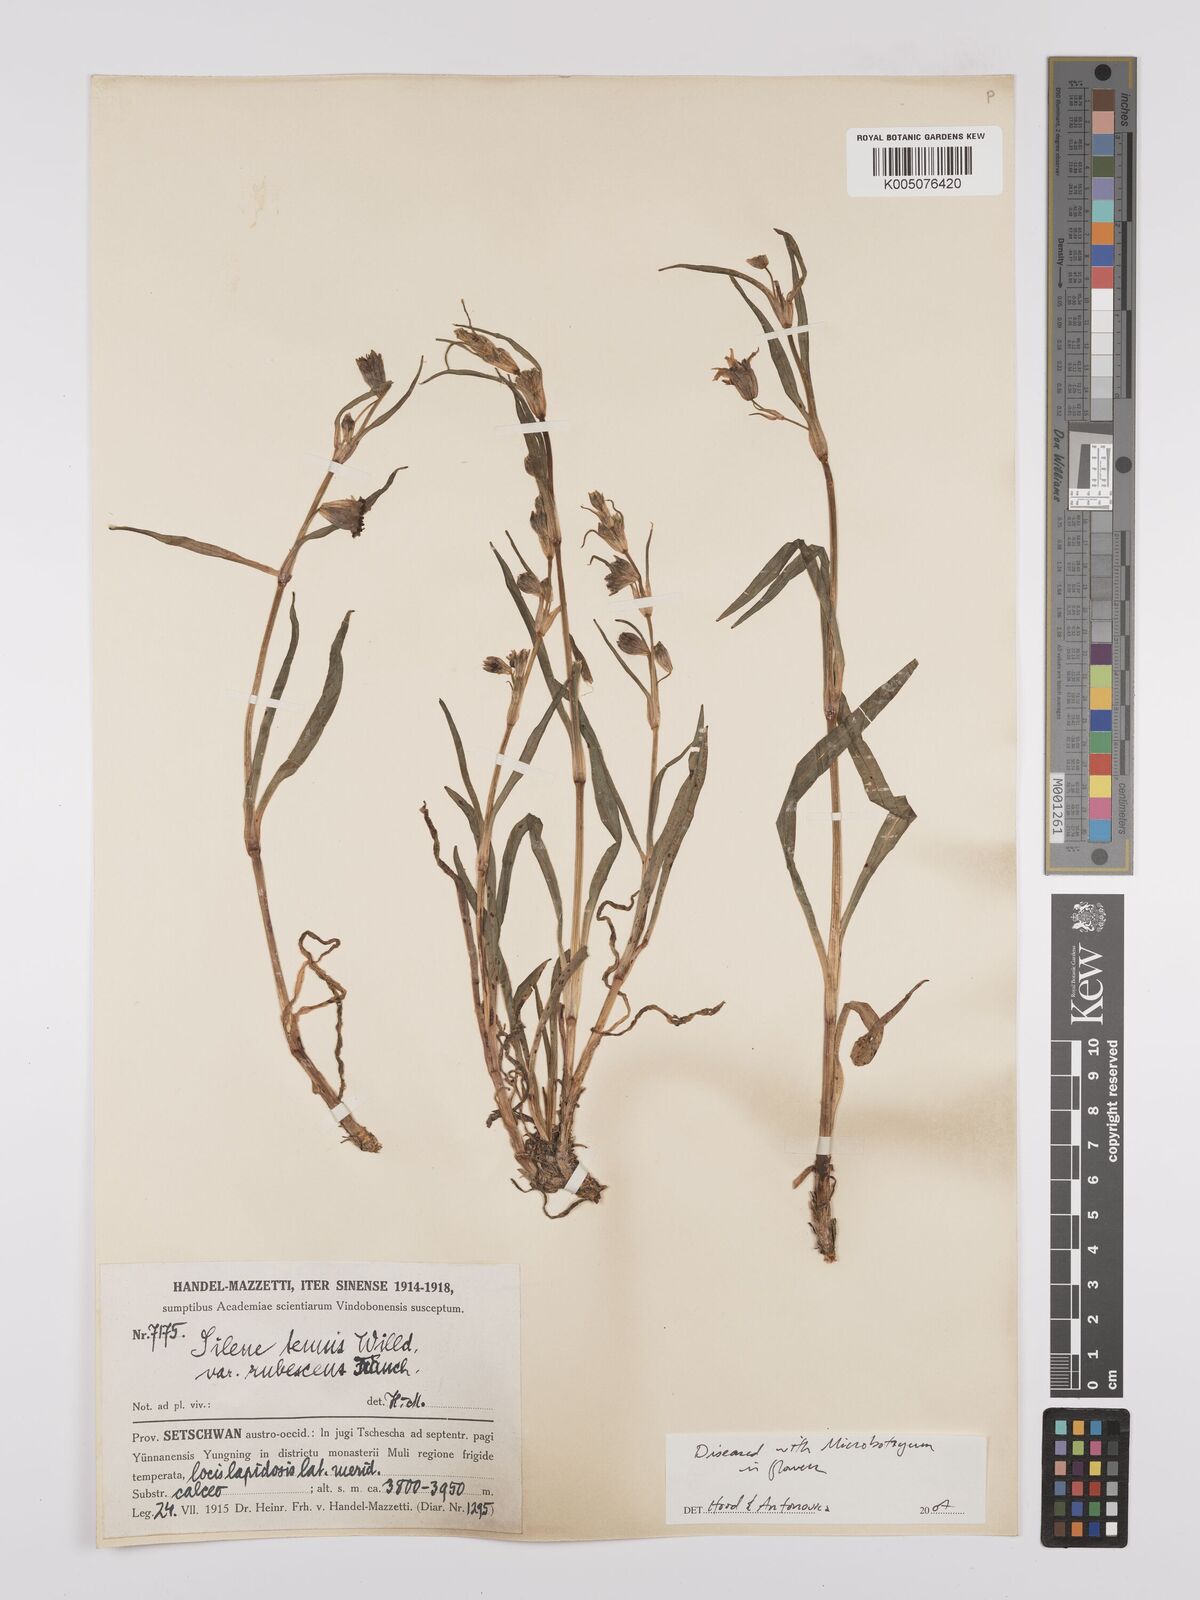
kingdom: Plantae
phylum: Tracheophyta
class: Magnoliopsida
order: Caryophyllales
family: Caryophyllaceae
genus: Silene
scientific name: Silene
